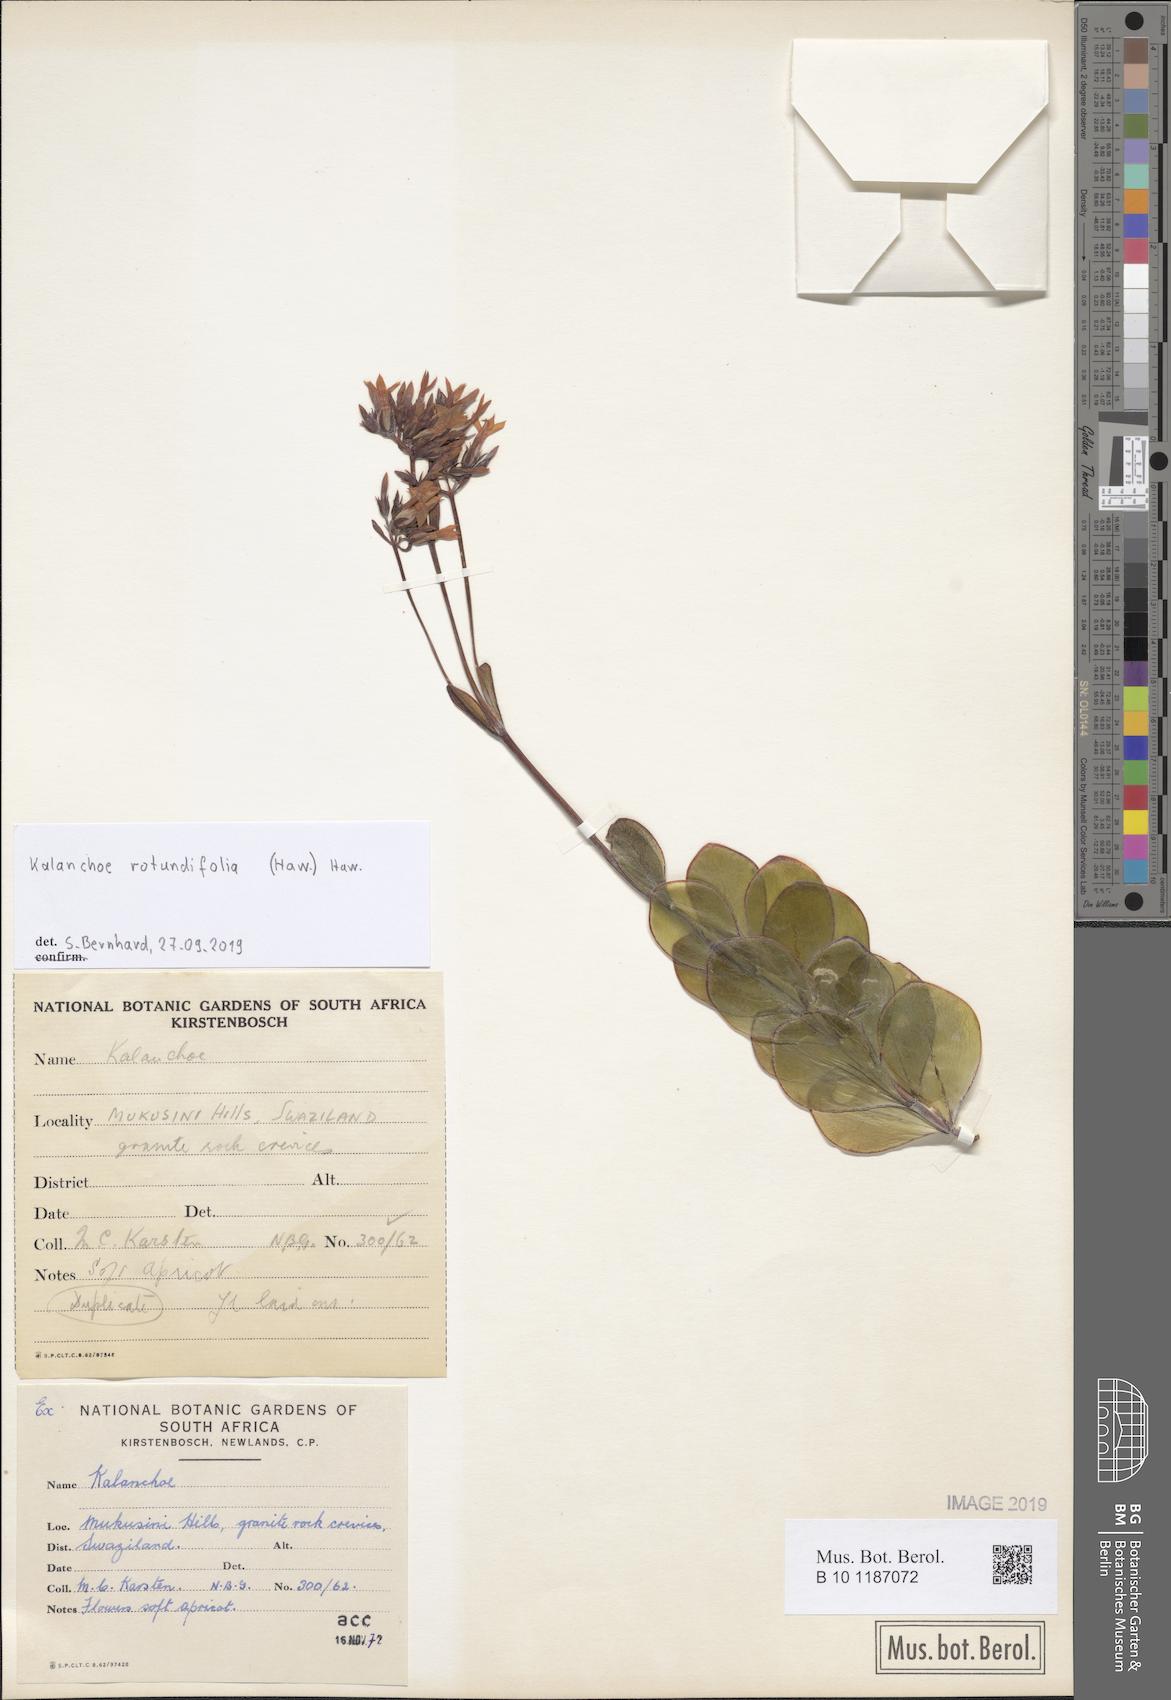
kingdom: Plantae
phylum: Tracheophyta
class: Magnoliopsida
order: Saxifragales
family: Crassulaceae
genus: Kalanchoe
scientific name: Kalanchoe rotundifolia
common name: Common kalanchoe
